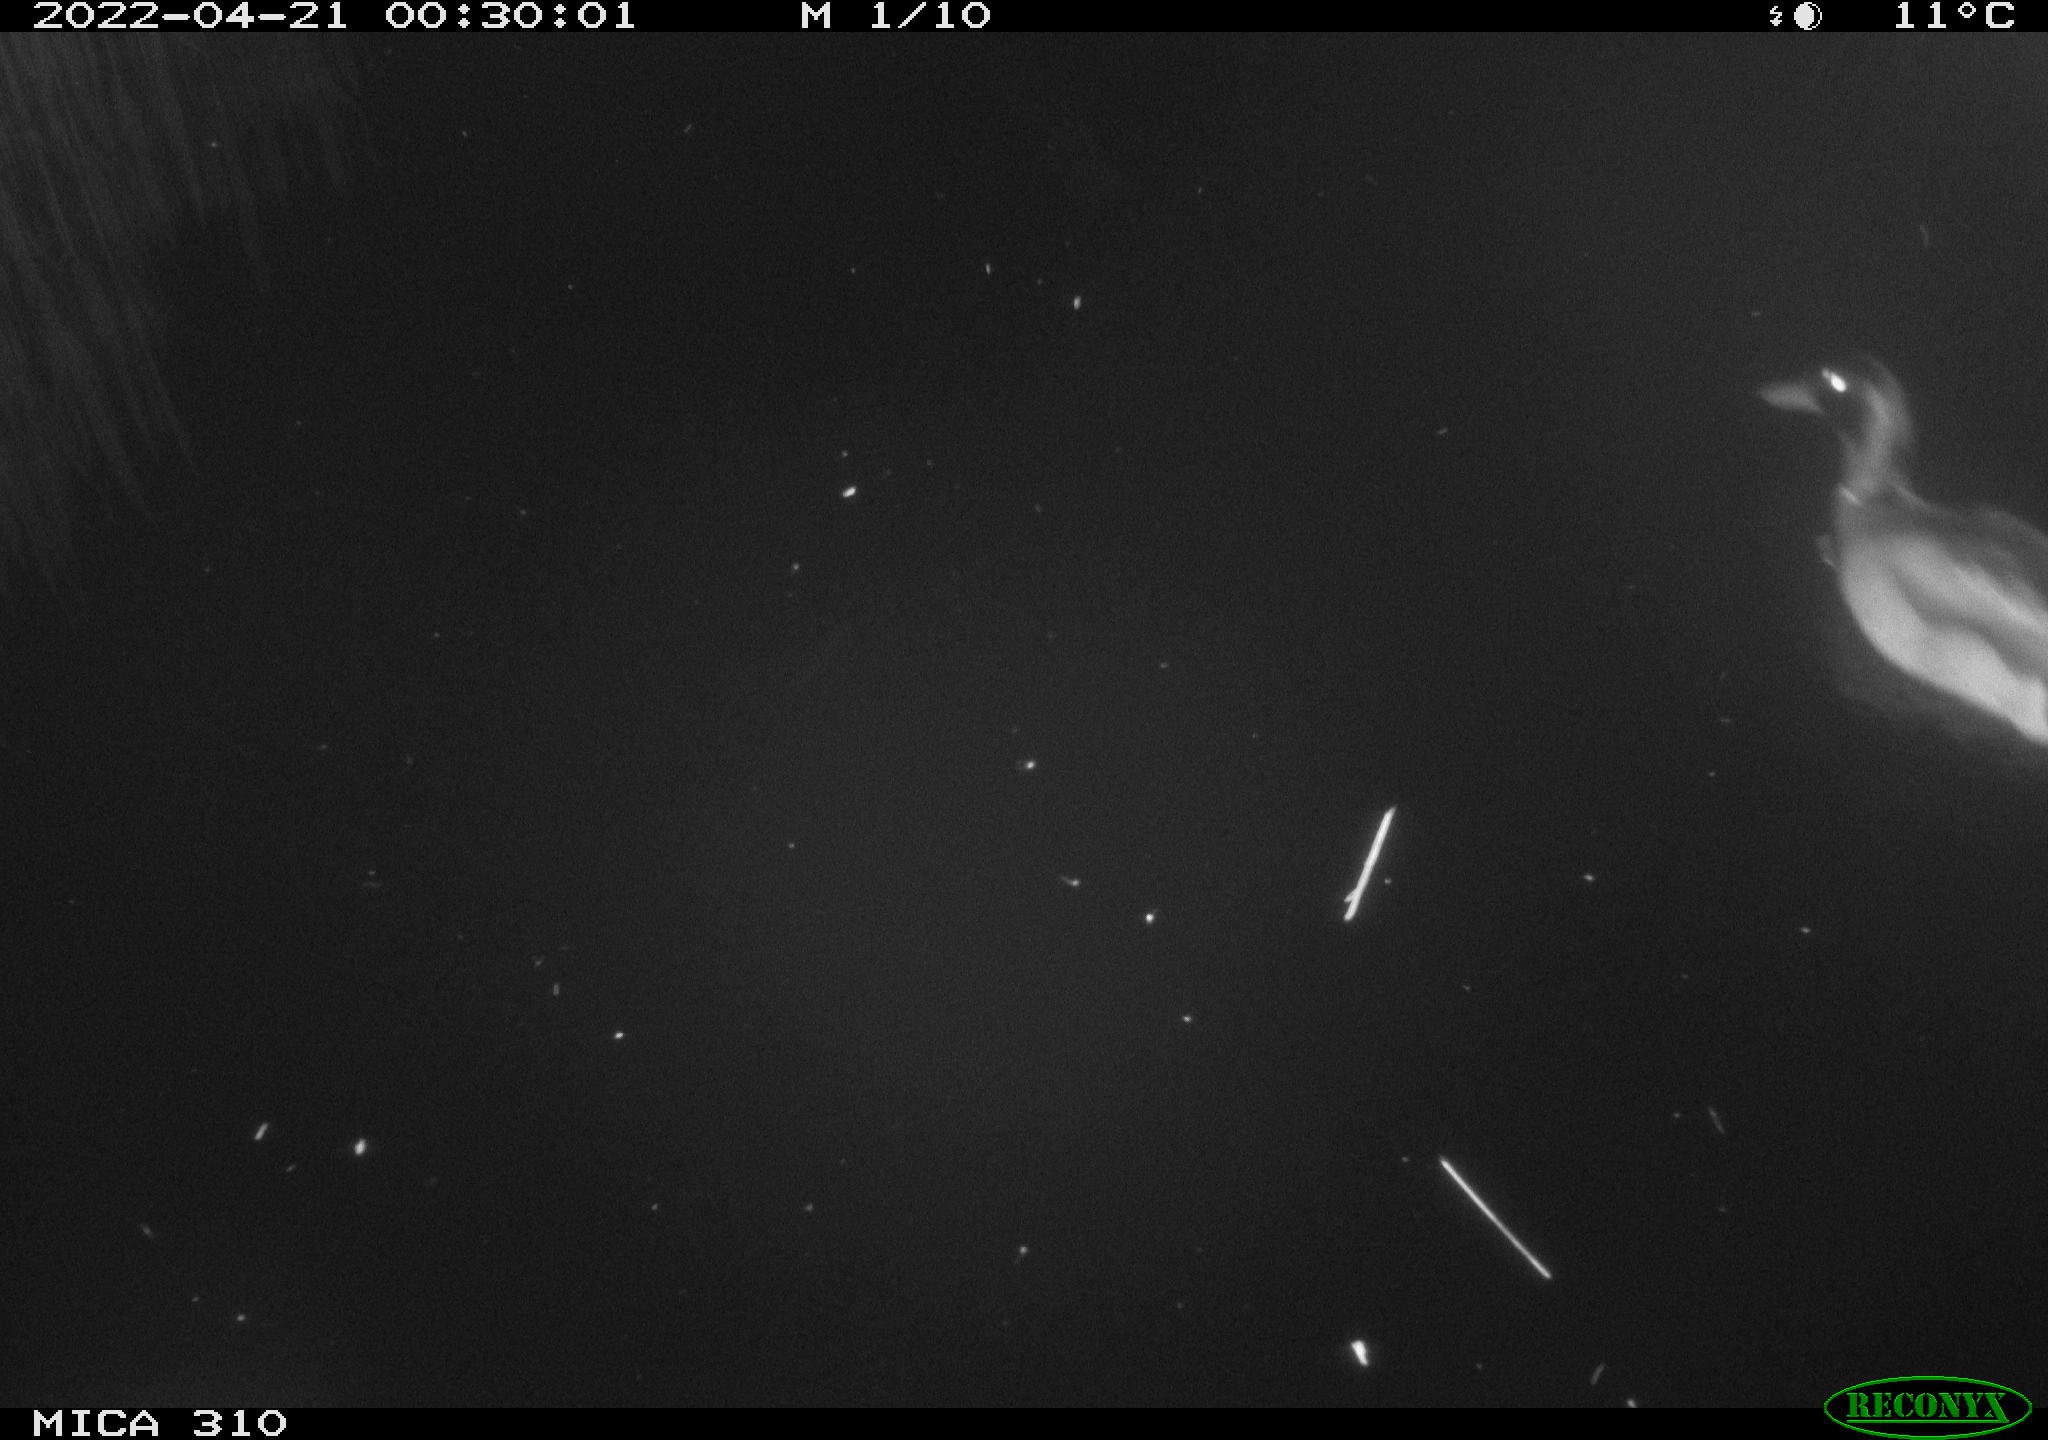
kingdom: Animalia
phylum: Chordata
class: Aves
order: Anseriformes
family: Anatidae
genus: Anas
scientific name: Anas platyrhynchos
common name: Mallard
